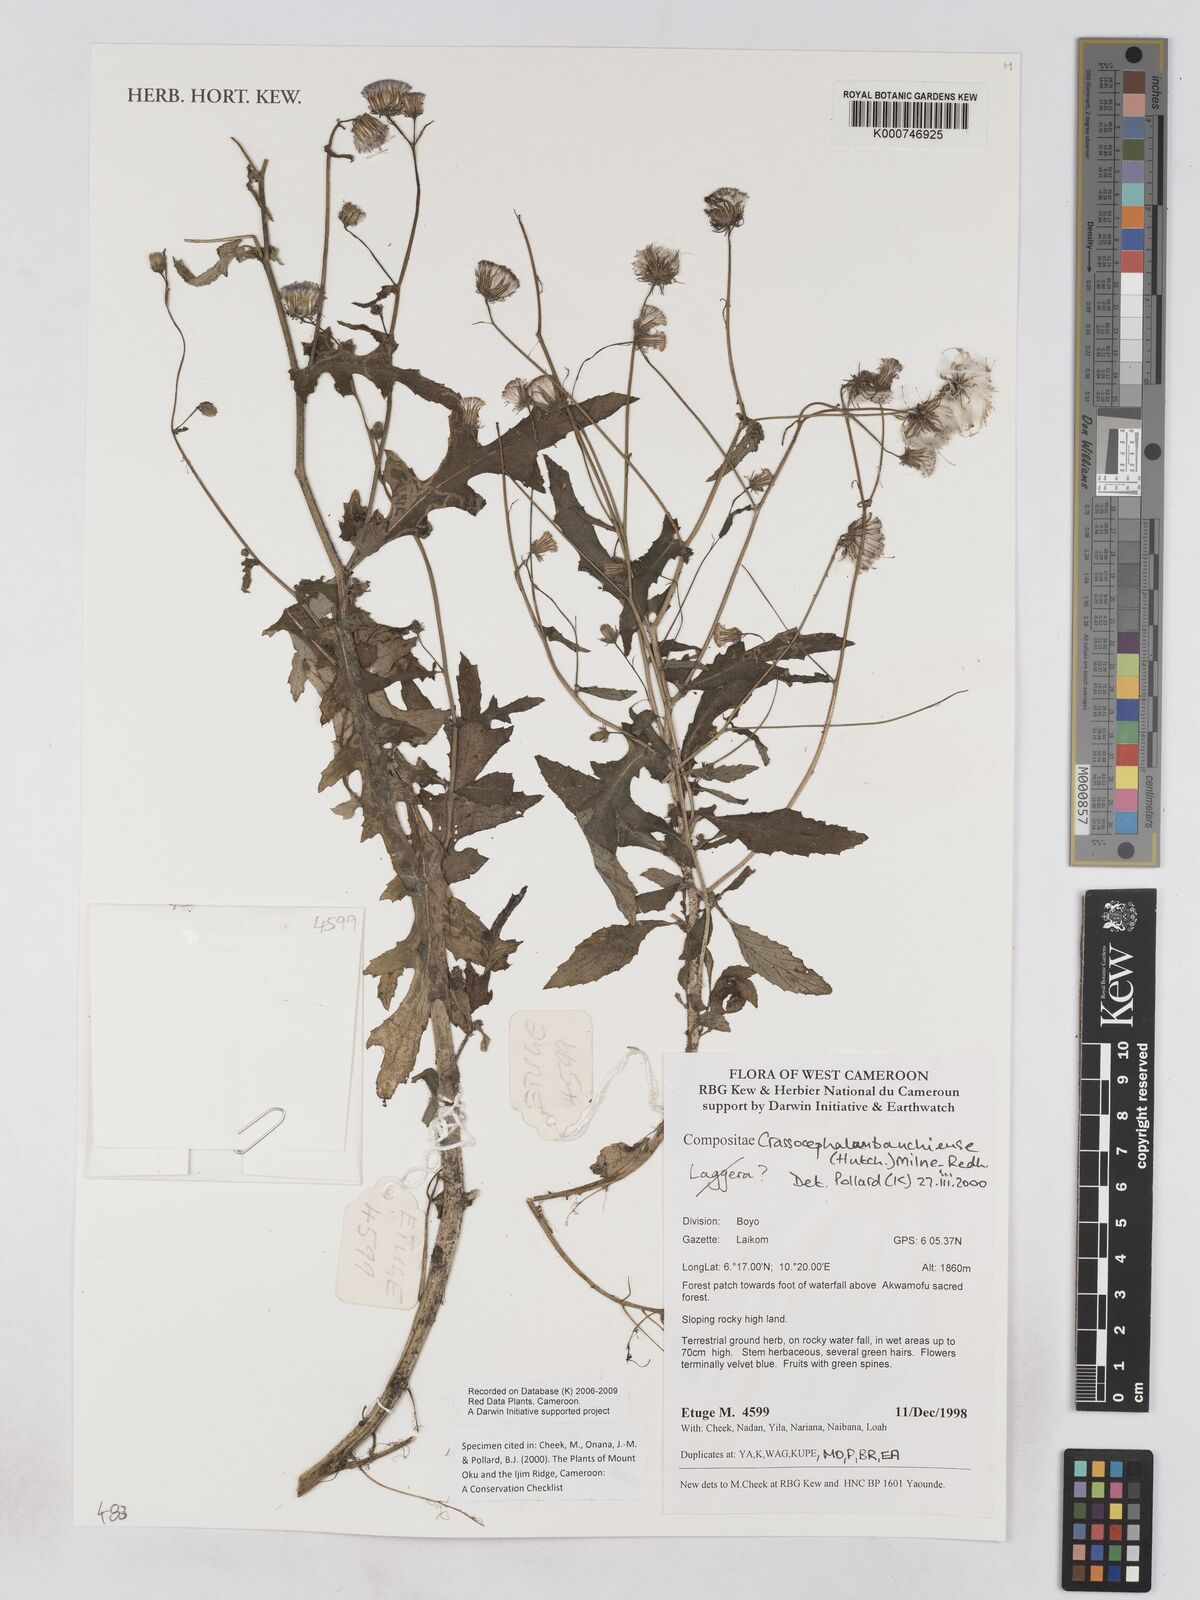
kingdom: Plantae
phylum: Tracheophyta
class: Magnoliopsida
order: Asterales
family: Asteraceae
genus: Crassocephalum
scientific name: Crassocephalum bauchiense
